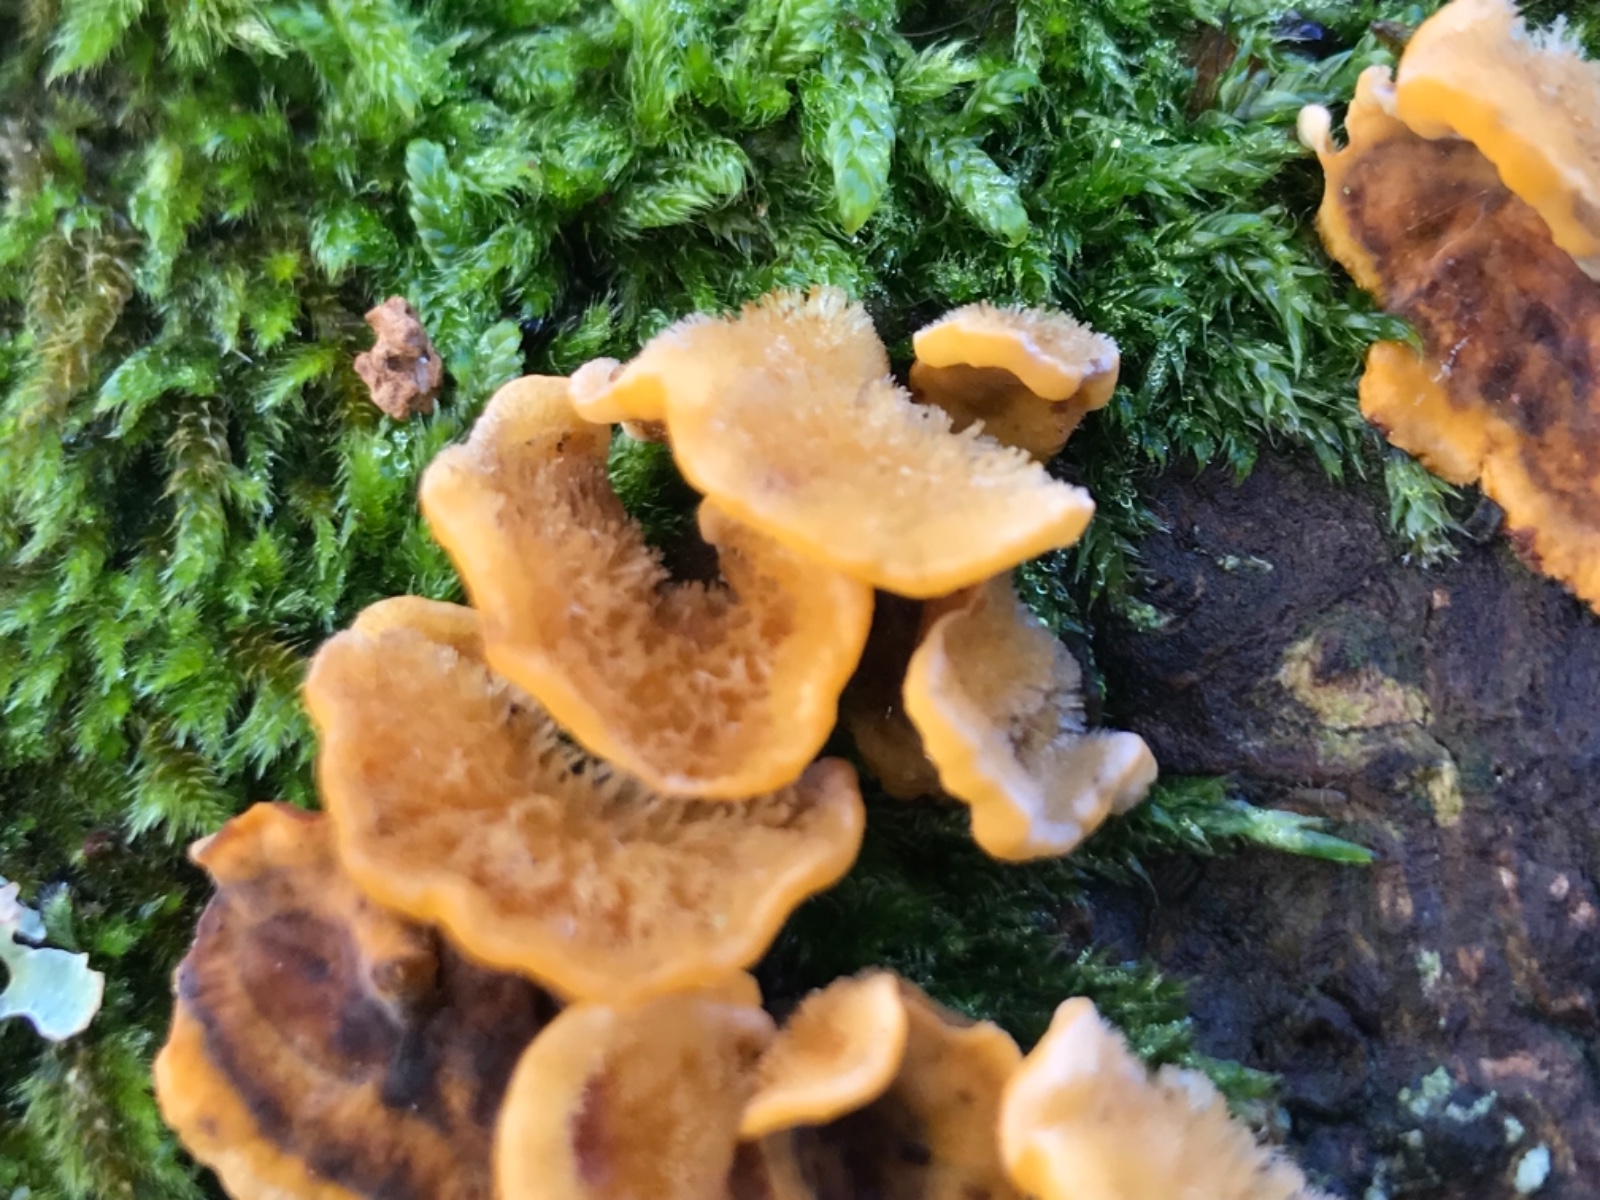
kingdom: Fungi
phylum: Basidiomycota
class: Agaricomycetes
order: Russulales
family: Stereaceae
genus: Stereum
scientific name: Stereum hirsutum
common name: håret lædersvamp
